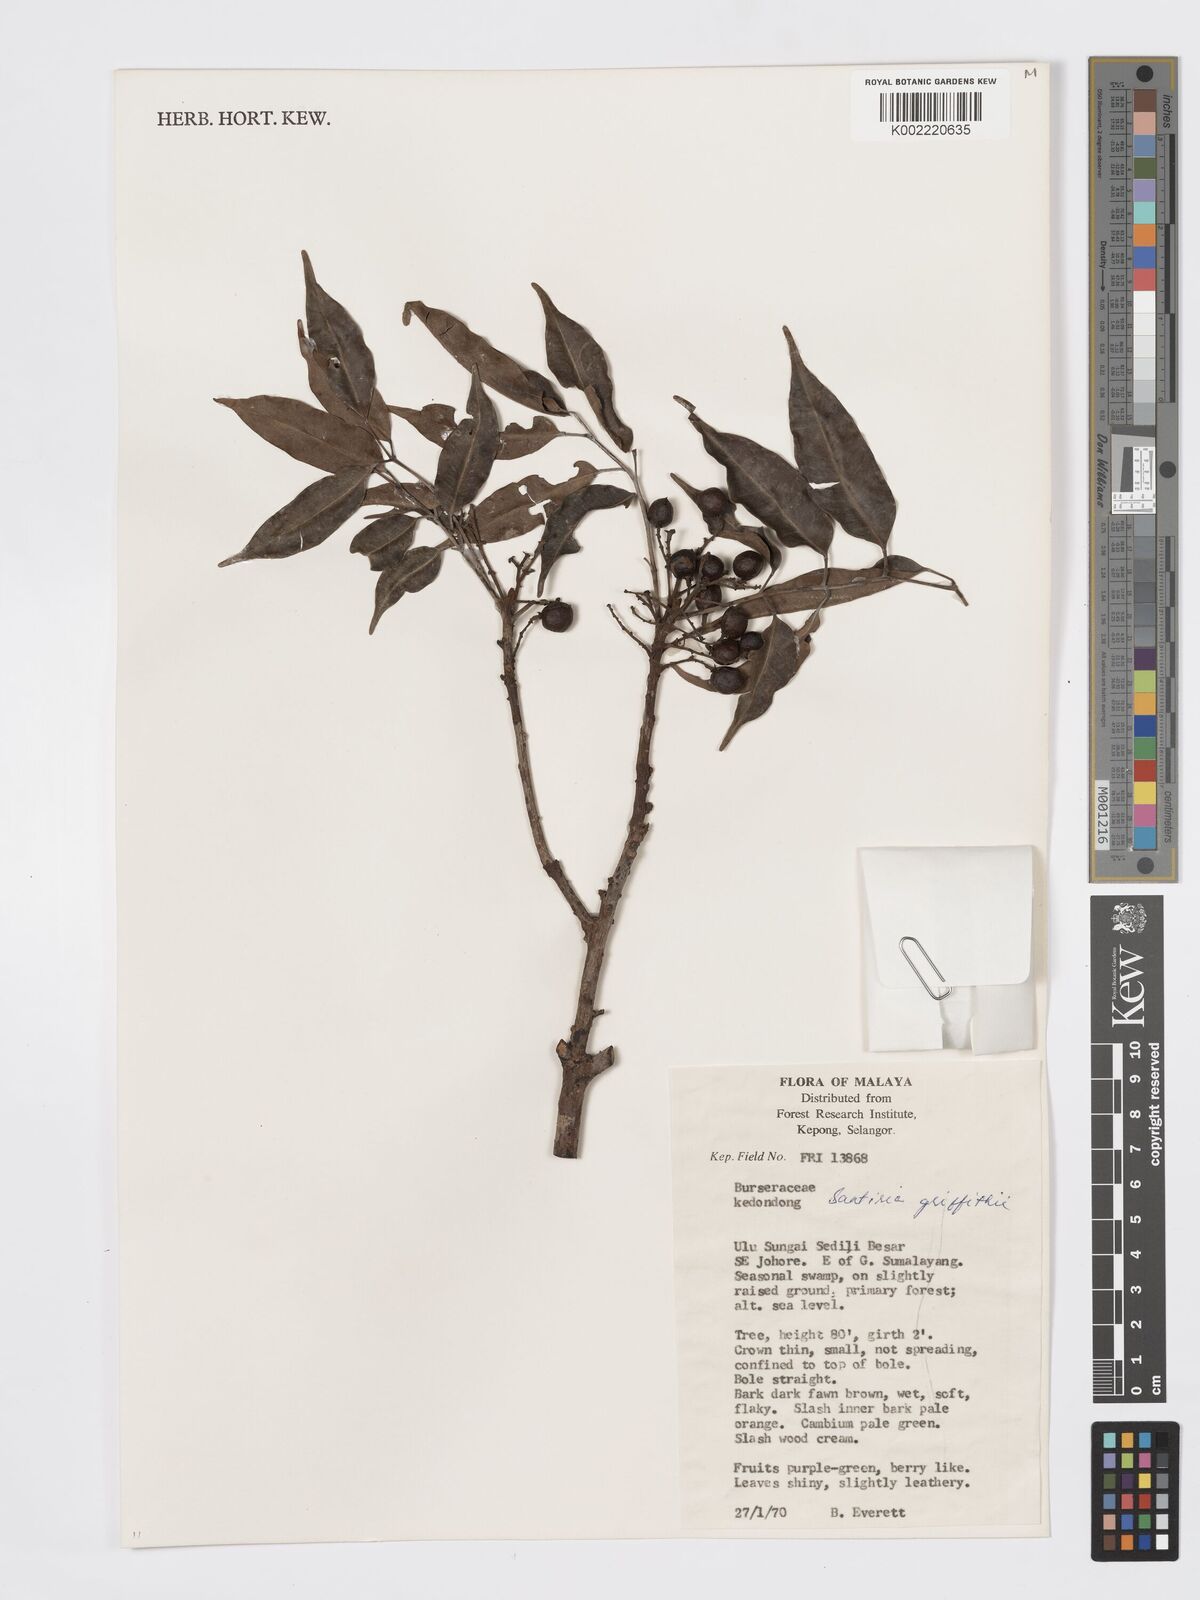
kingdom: Plantae
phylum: Tracheophyta
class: Magnoliopsida
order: Sapindales
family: Burseraceae
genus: Santiria
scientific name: Santiria griffithii
